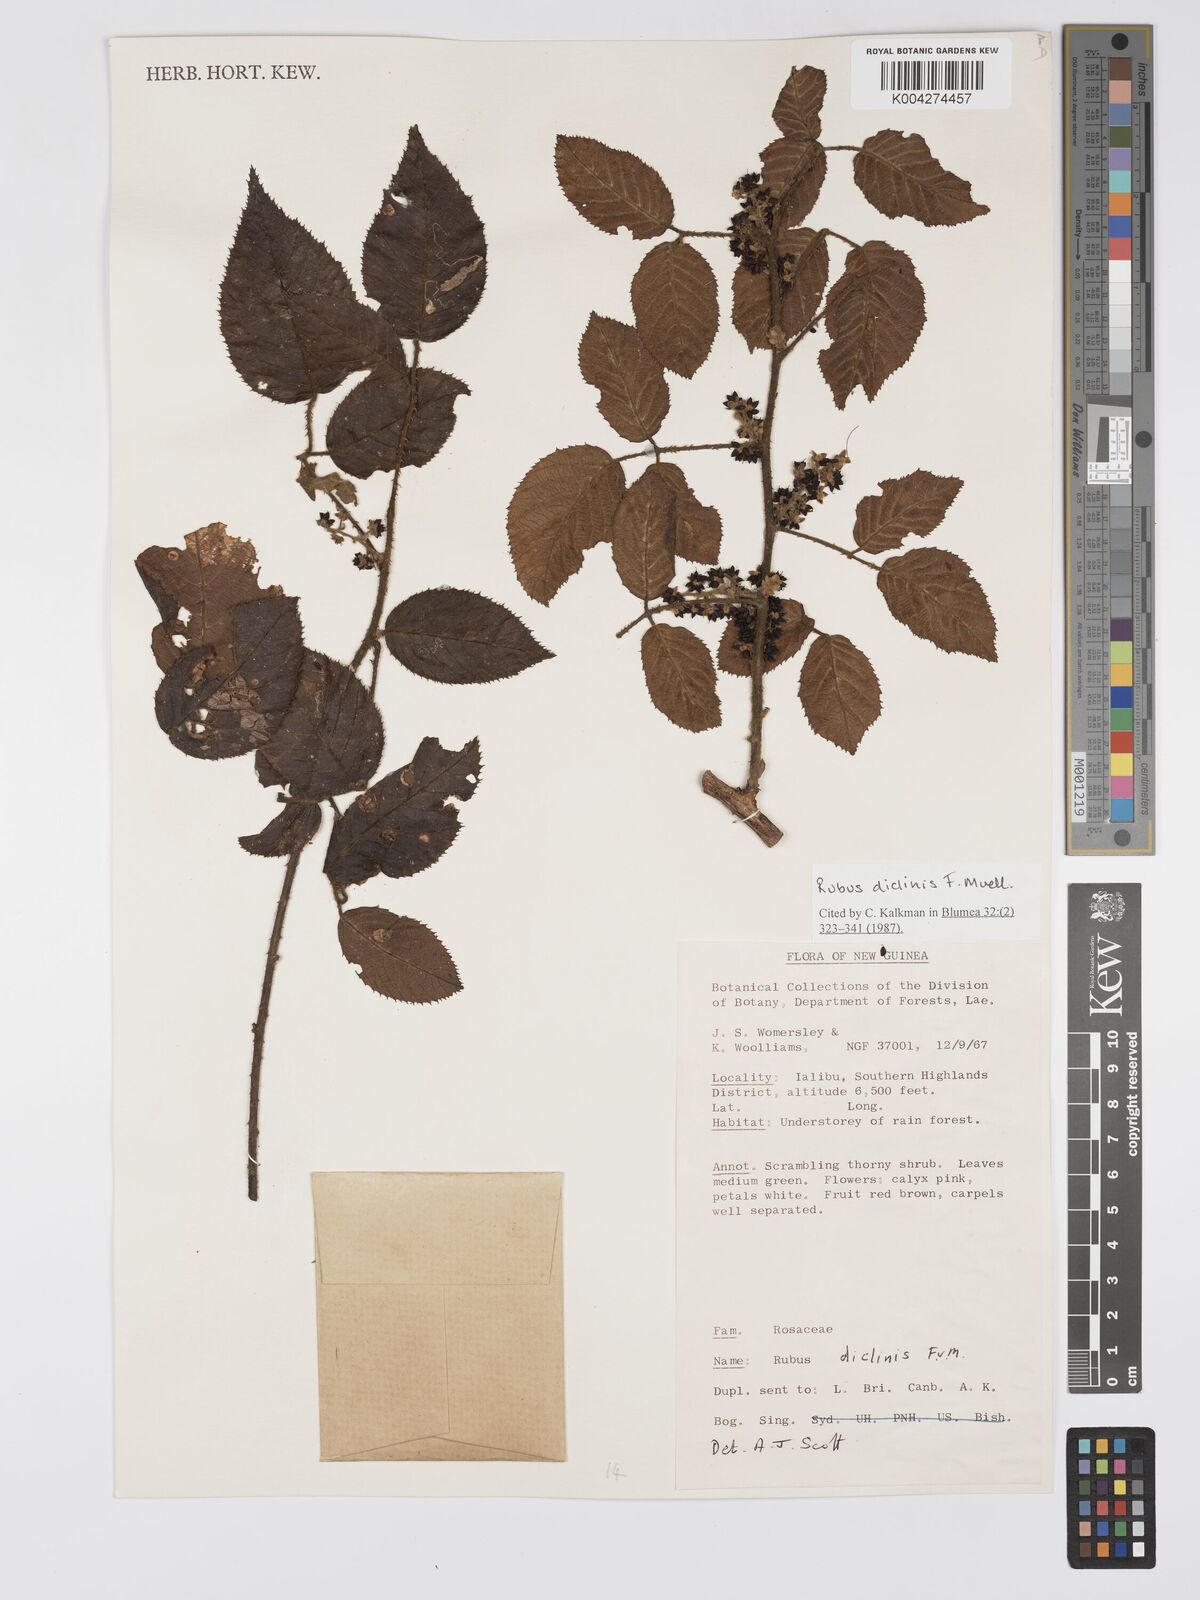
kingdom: Plantae
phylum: Tracheophyta
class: Magnoliopsida
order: Rosales
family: Rosaceae
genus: Rubus
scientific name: Rubus diclinis
